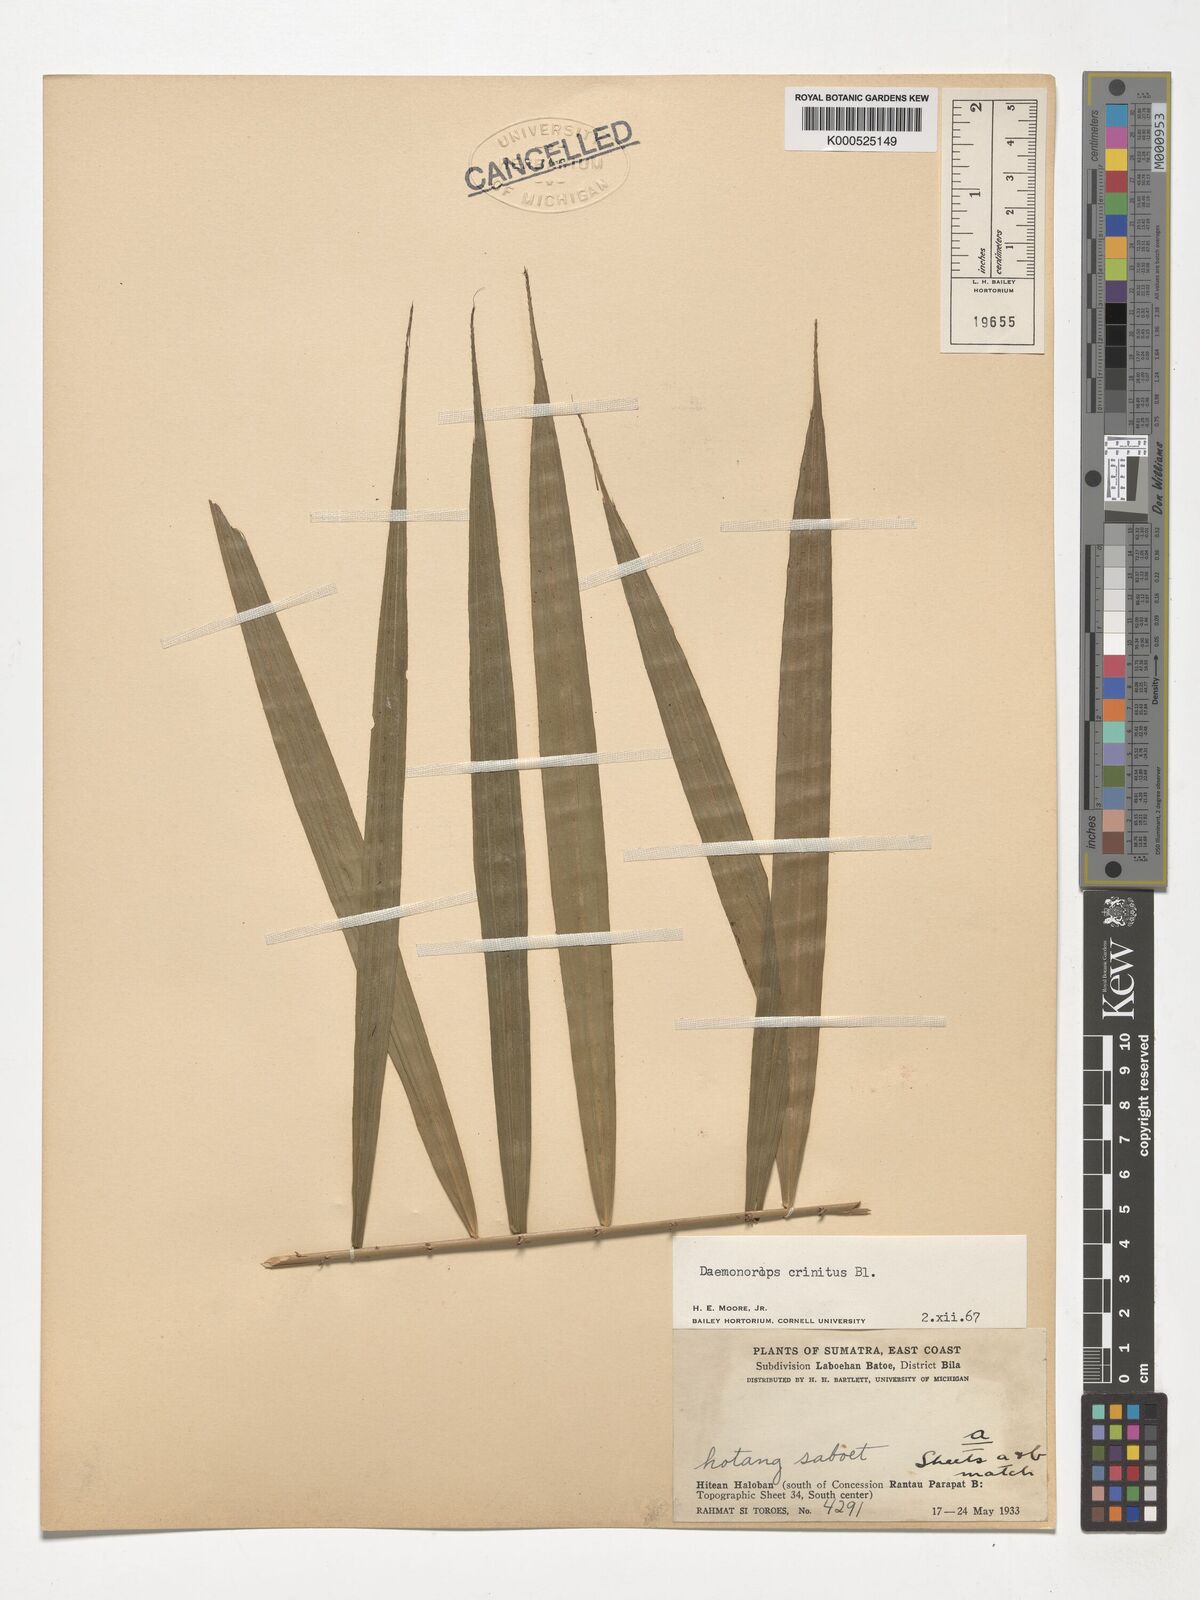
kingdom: Plantae
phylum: Tracheophyta
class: Liliopsida
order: Arecales
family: Arecaceae
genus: Calamus
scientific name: Calamus crinitus
